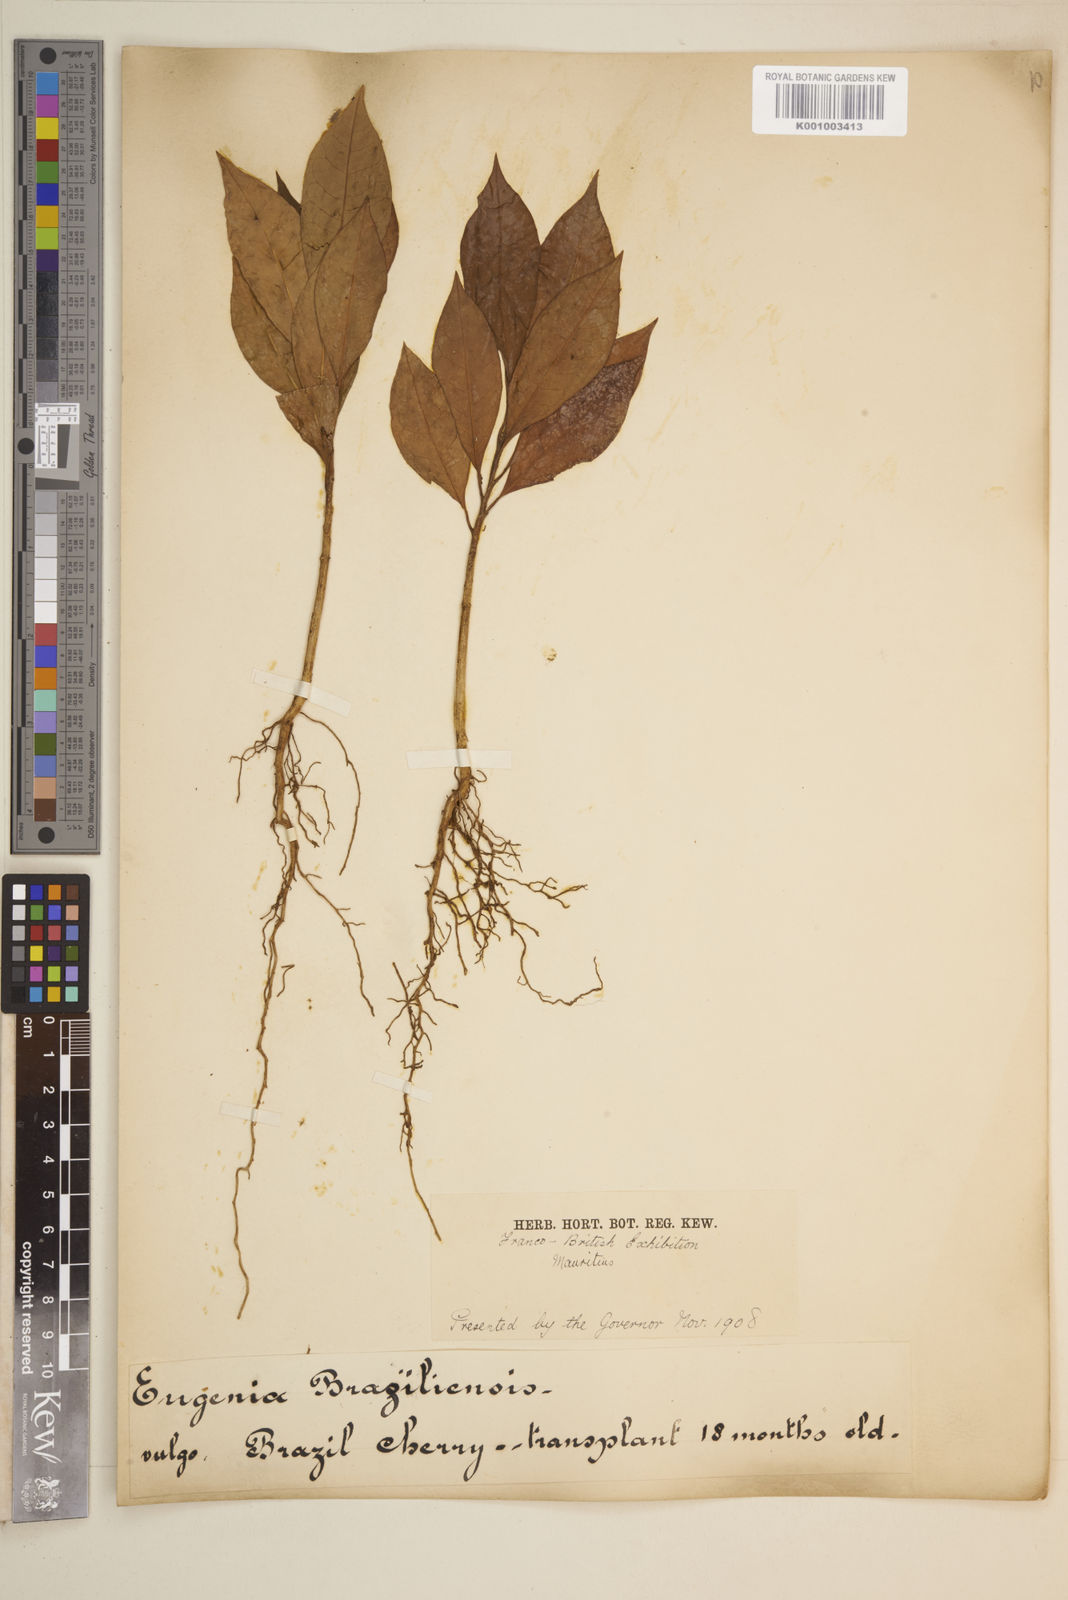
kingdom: Plantae
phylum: Tracheophyta
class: Magnoliopsida
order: Myrtales
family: Myrtaceae
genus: Eugenia
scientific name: Eugenia
